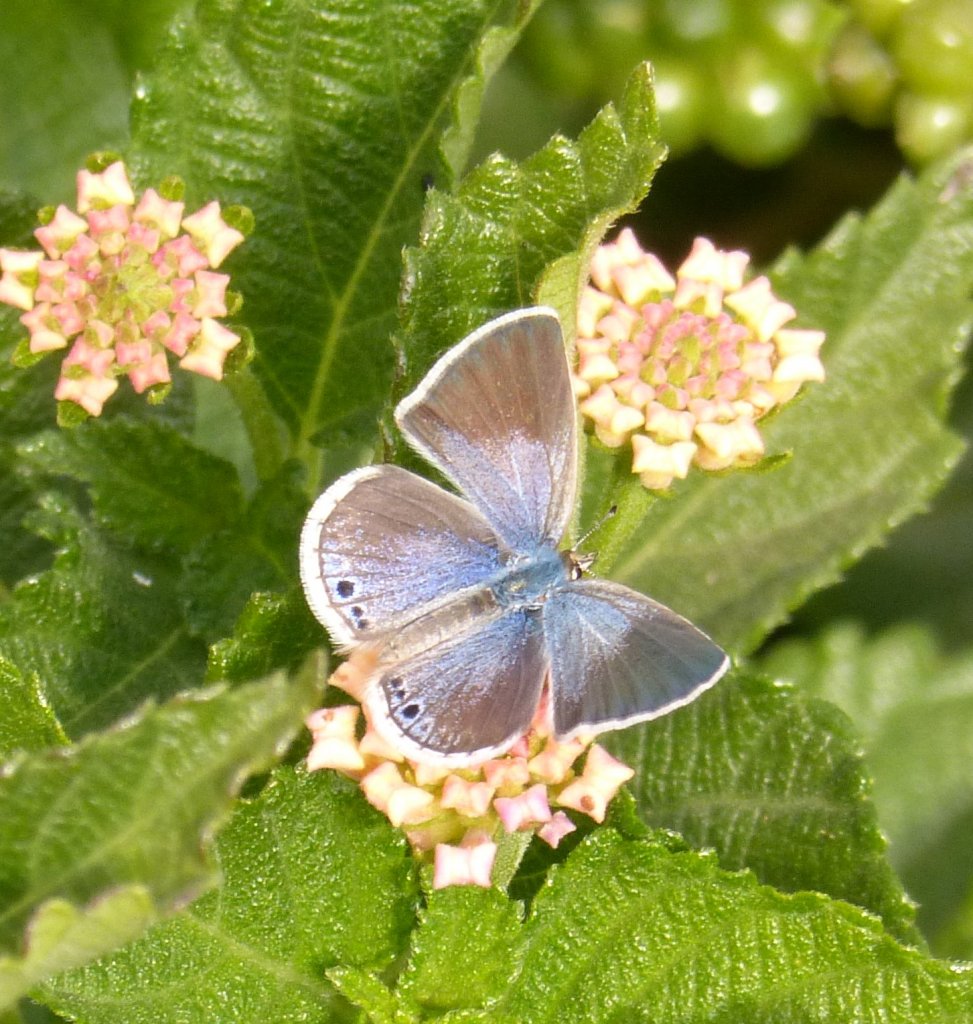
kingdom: Animalia
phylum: Arthropoda
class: Insecta
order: Lepidoptera
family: Lycaenidae
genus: Echinargus
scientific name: Echinargus isola
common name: Reakirt's Blue
